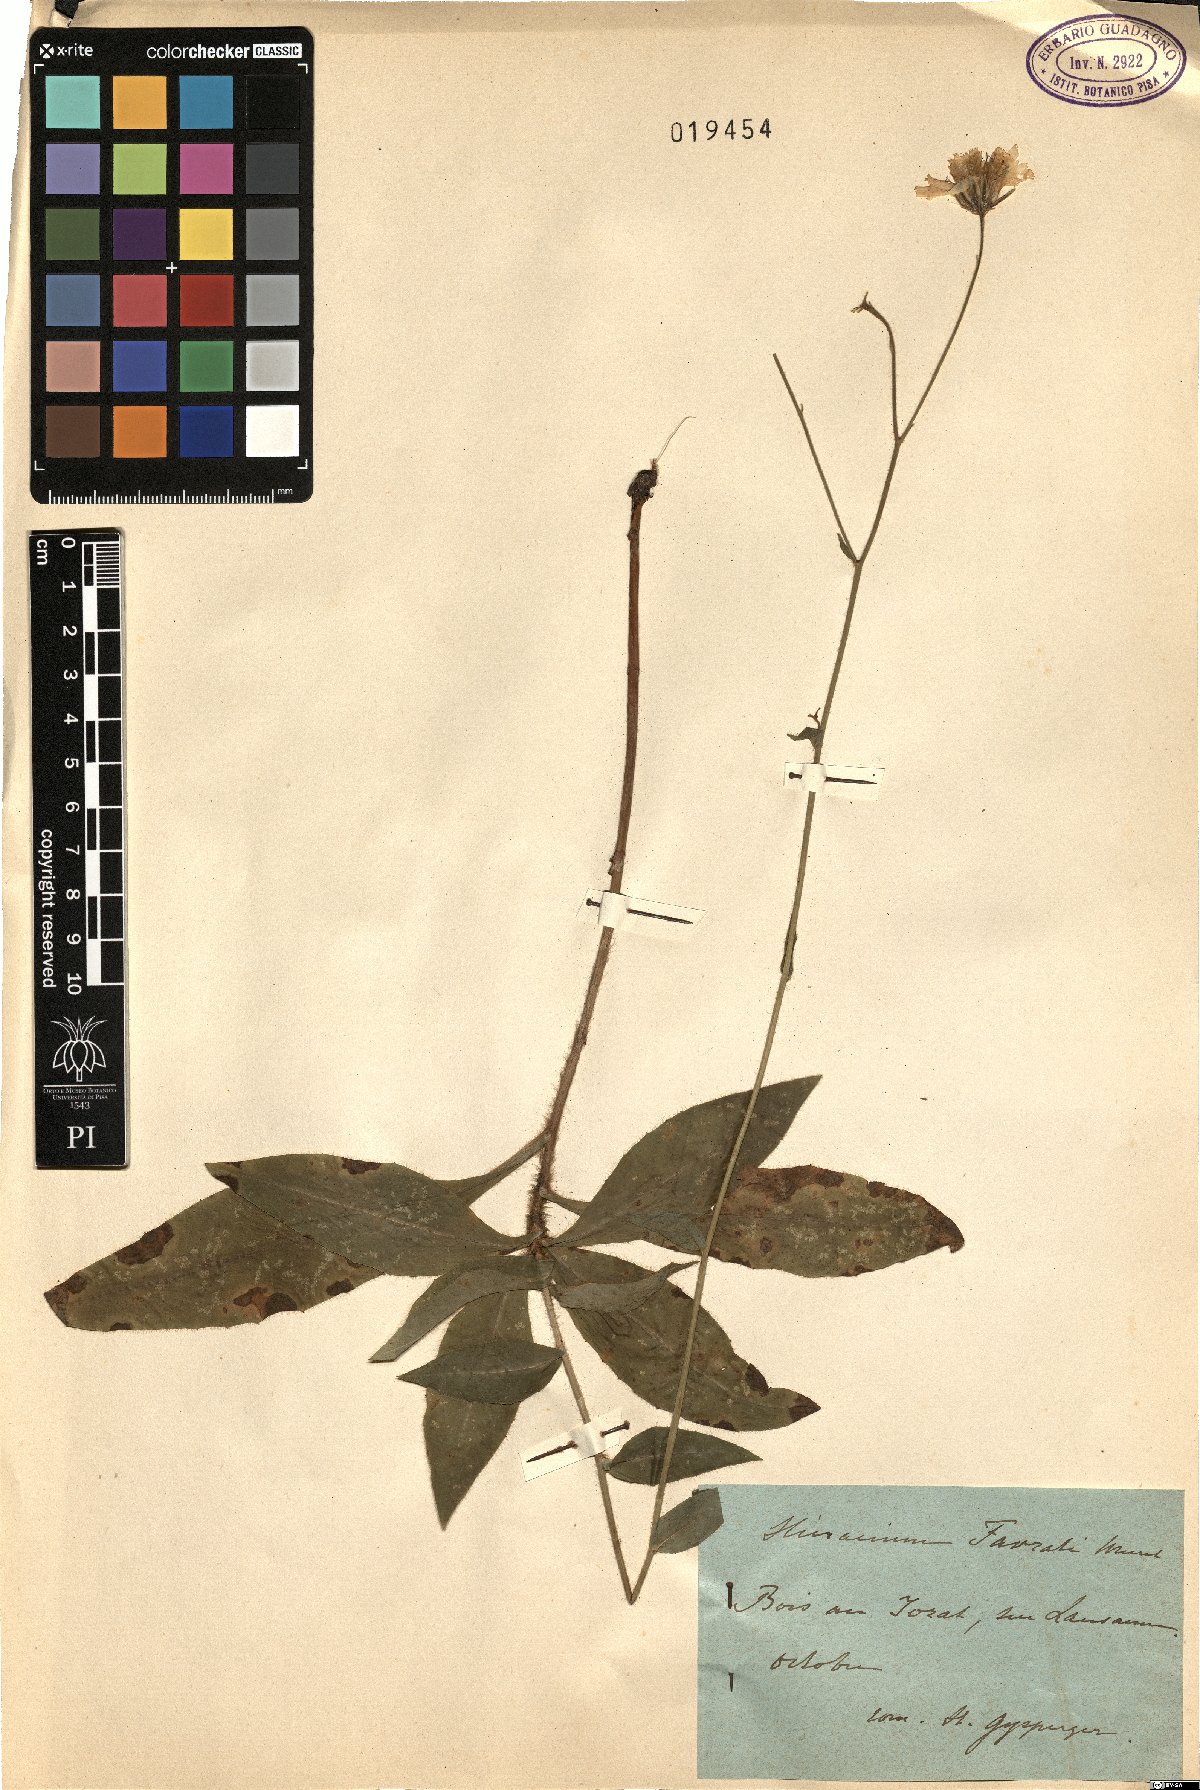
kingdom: Plantae
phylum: Tracheophyta
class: Magnoliopsida
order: Asterales
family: Asteraceae
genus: Hieracium
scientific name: Hieracium favratii
